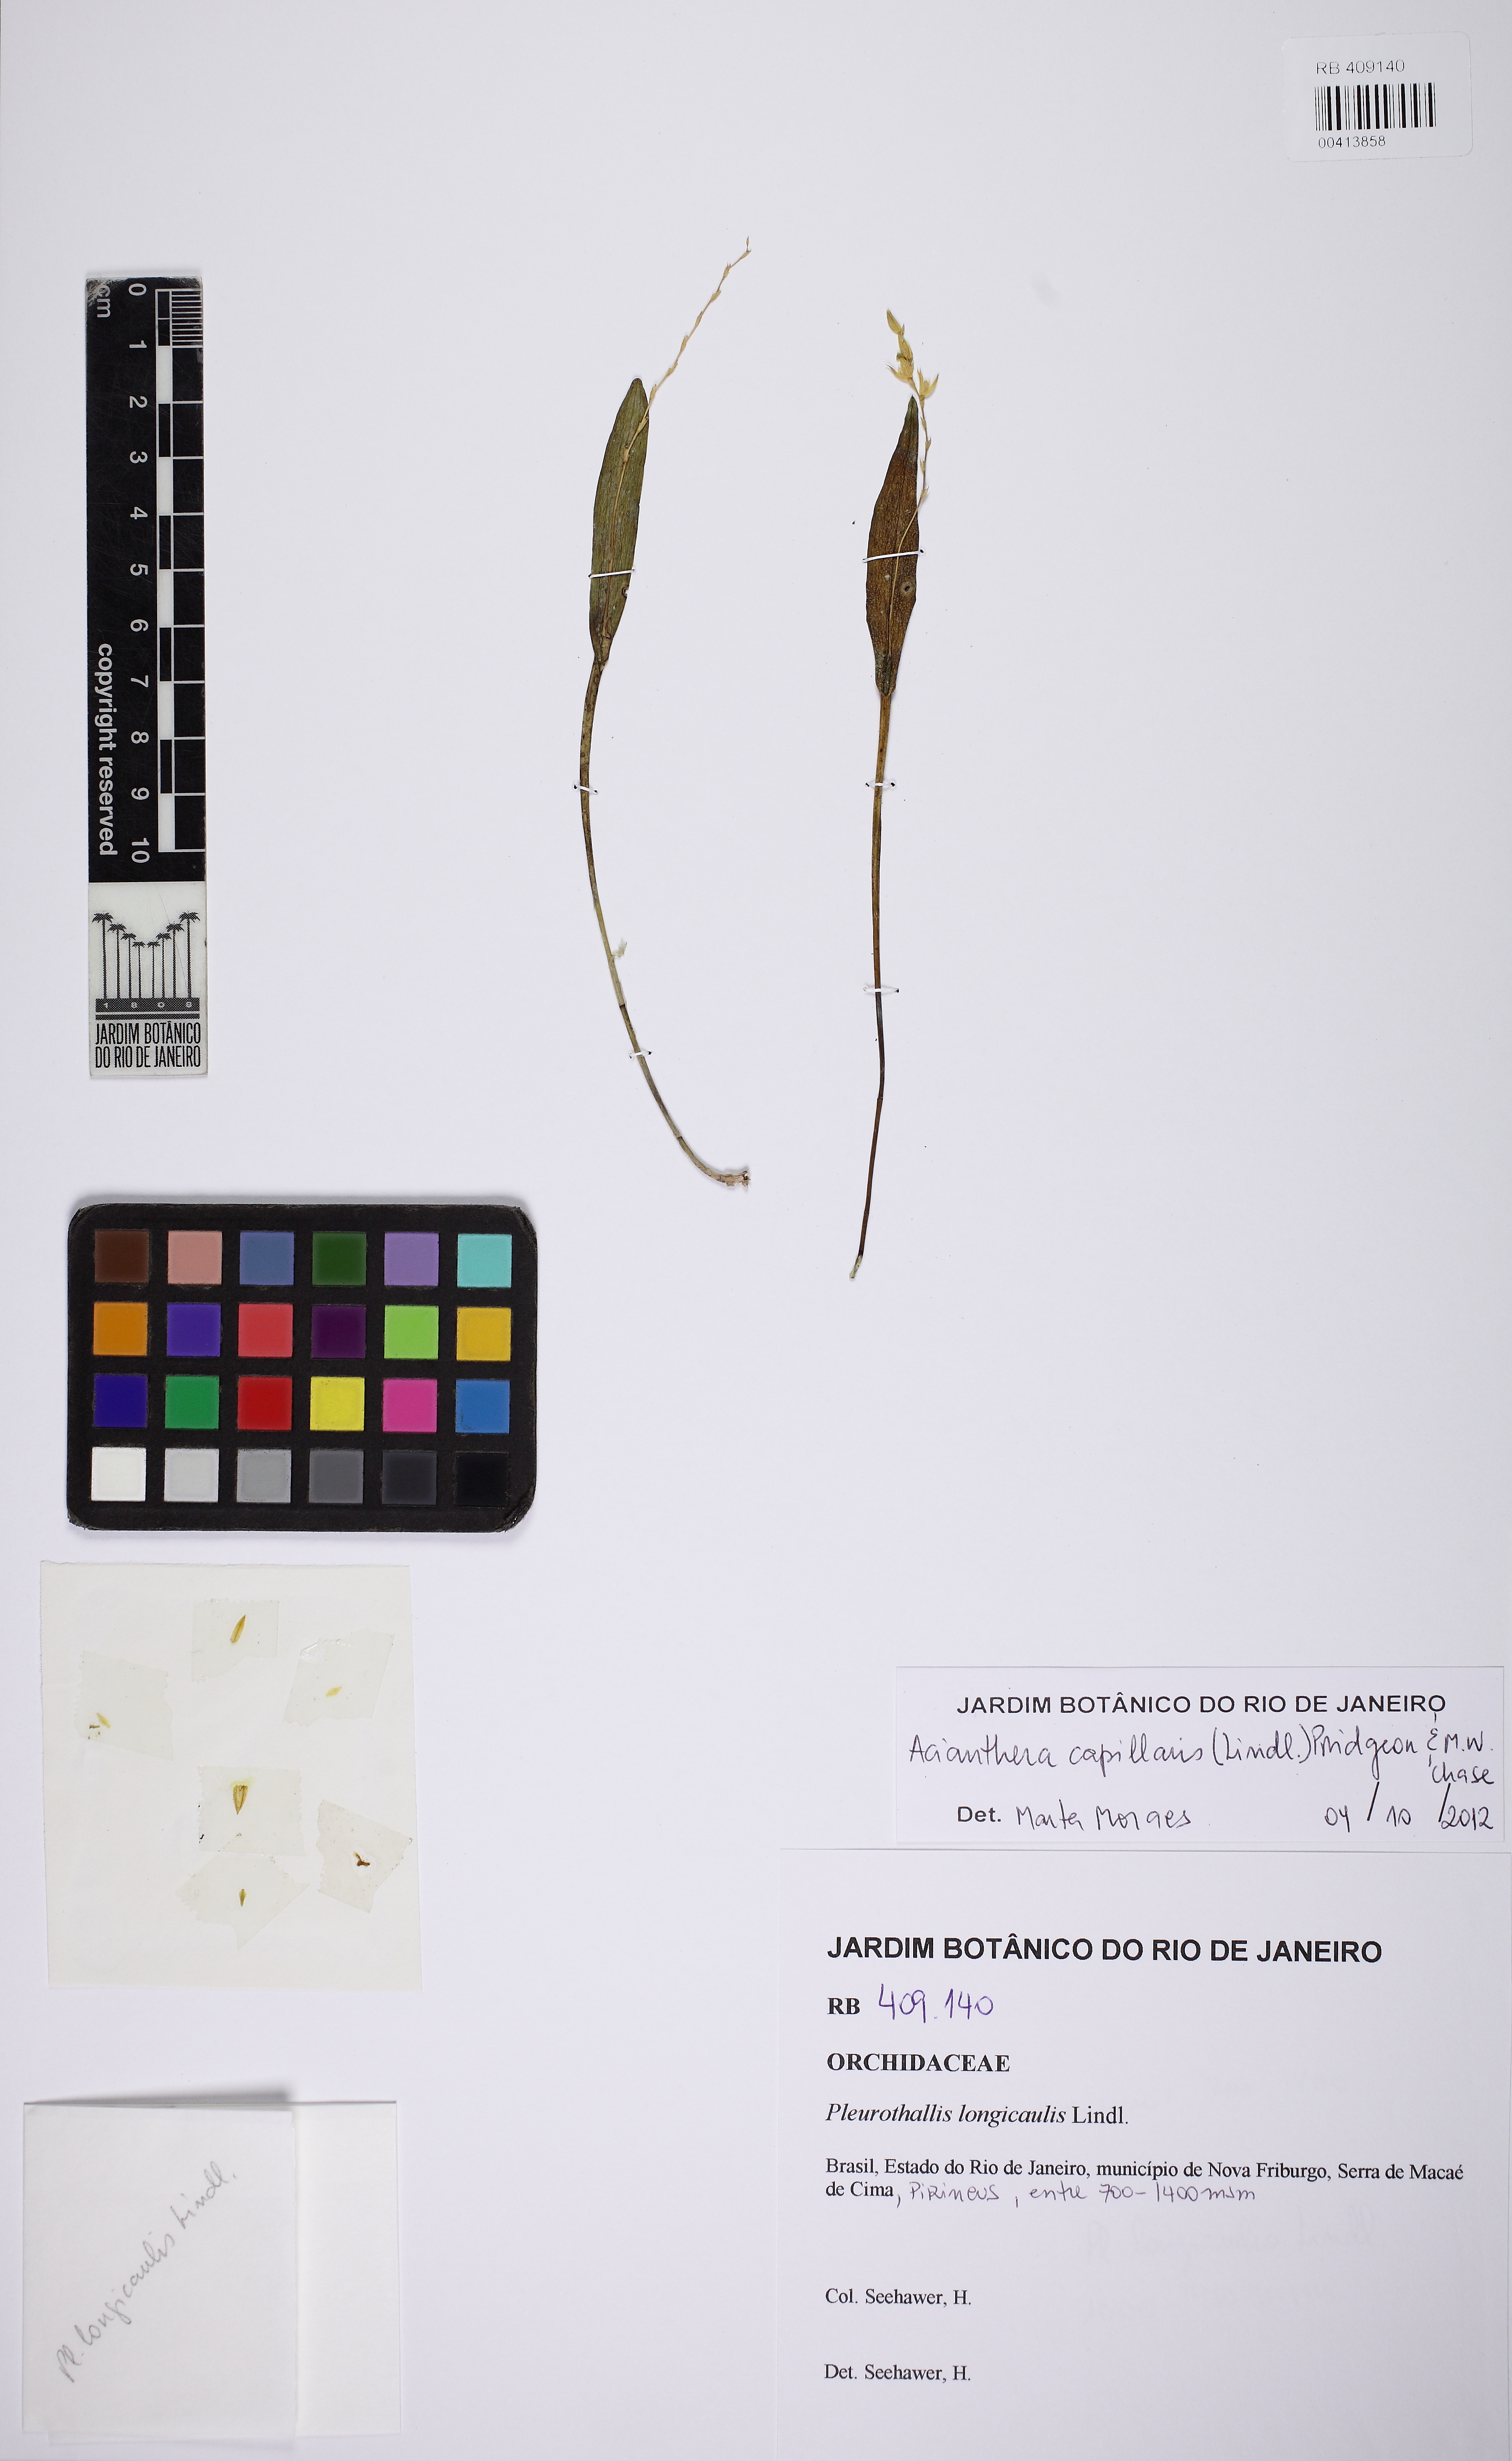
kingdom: Plantae
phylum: Tracheophyta
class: Liliopsida
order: Asparagales
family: Orchidaceae
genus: Acianthera
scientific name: Acianthera capillaris
